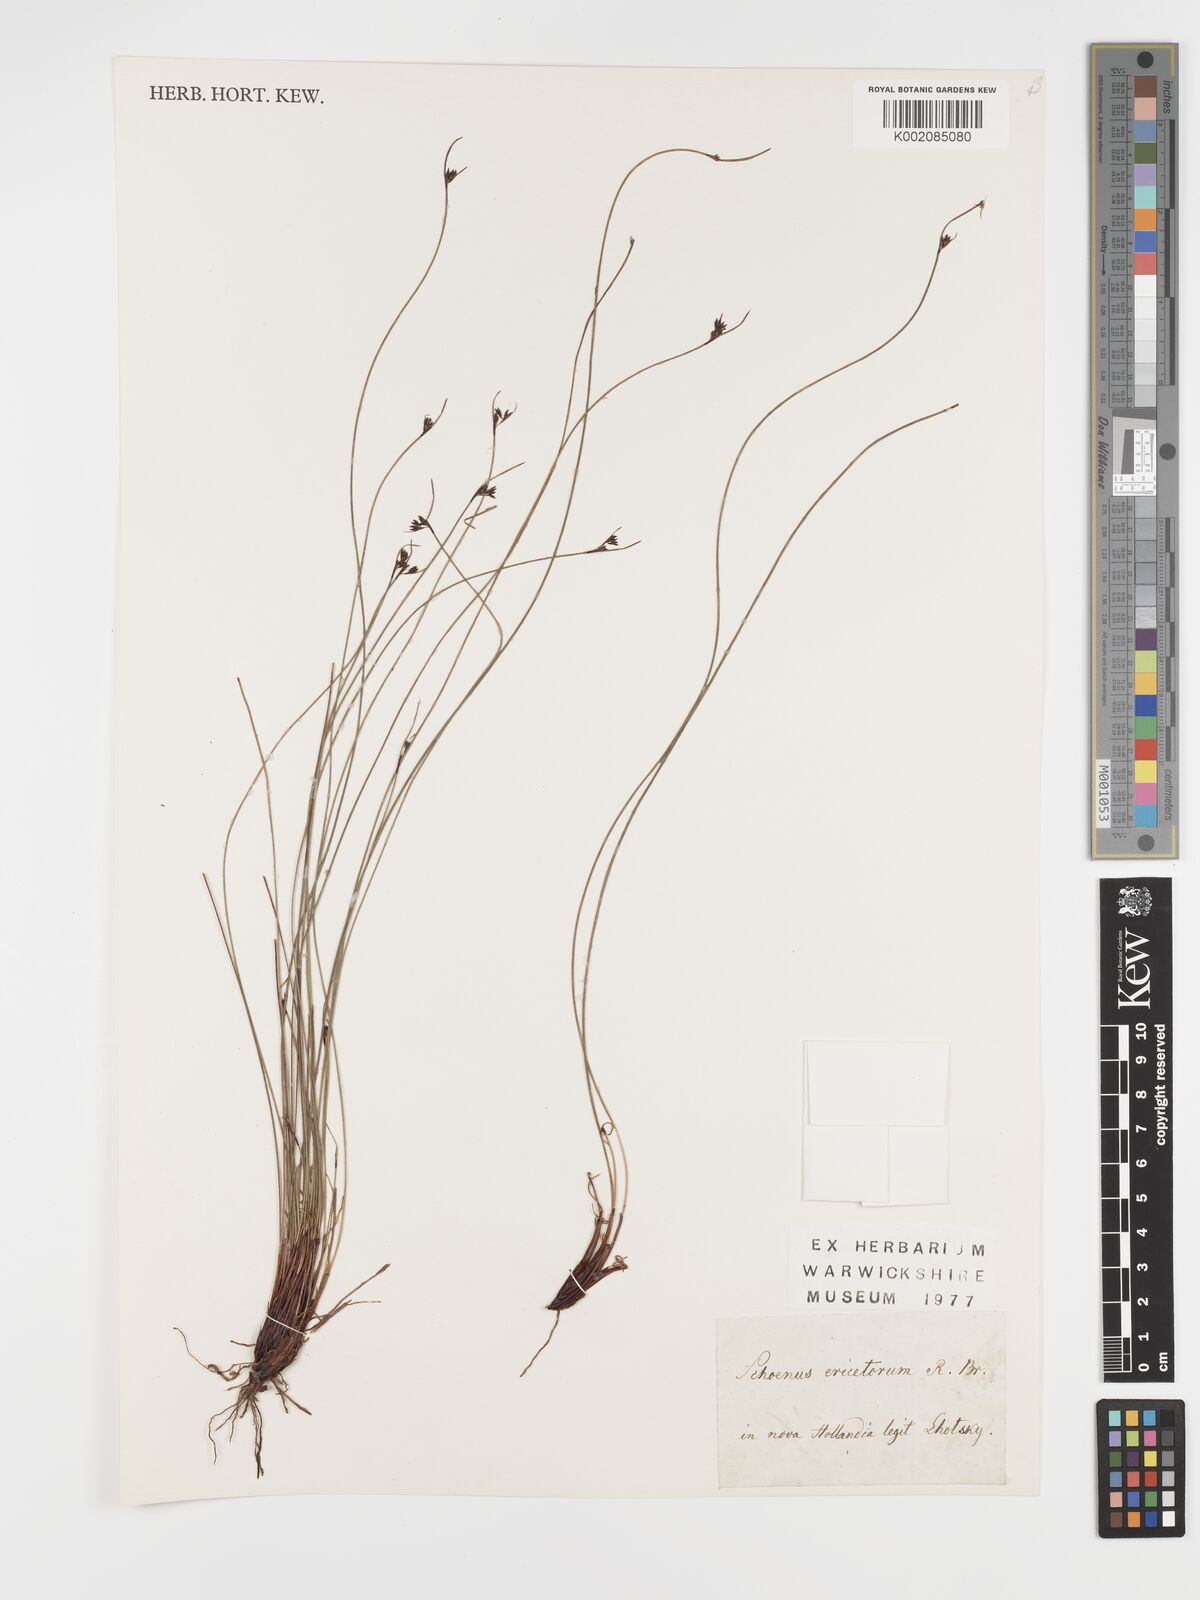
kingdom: Plantae
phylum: Tracheophyta
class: Liliopsida
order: Poales
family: Cyperaceae
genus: Schoenus
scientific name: Schoenus ericetorum
